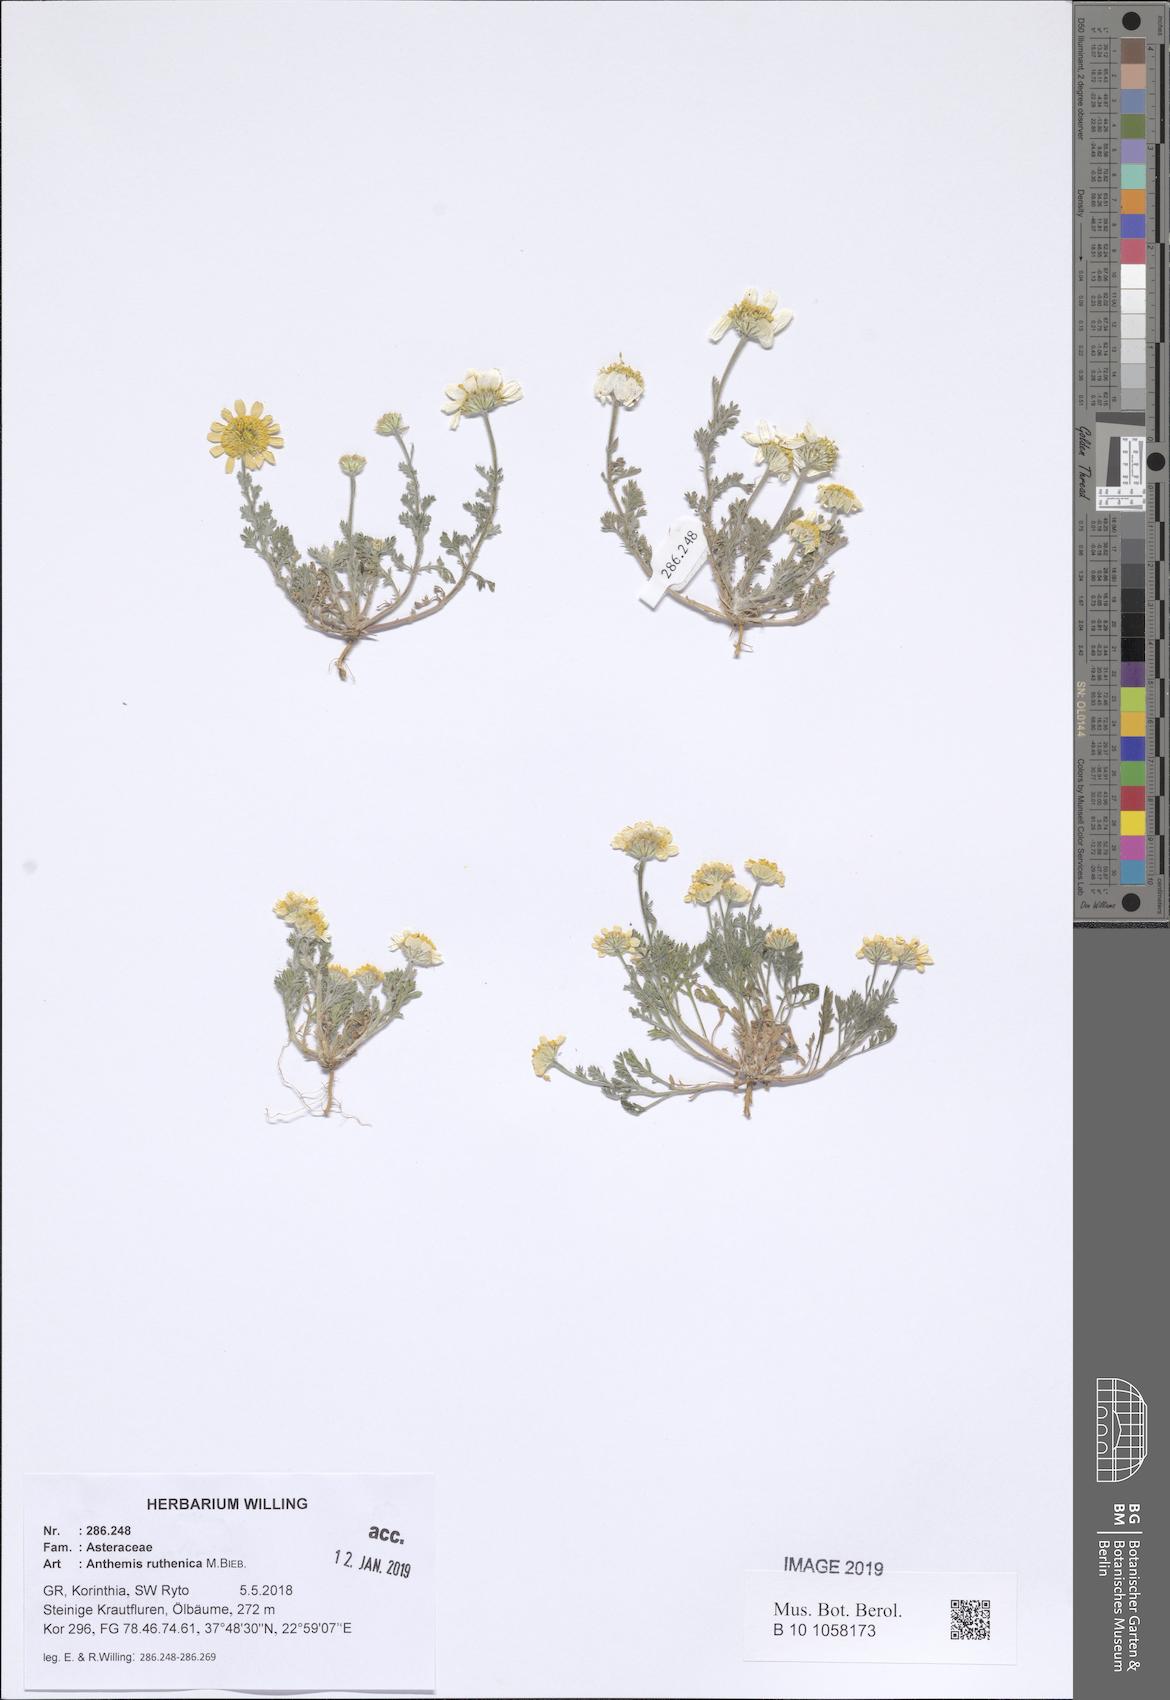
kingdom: Plantae
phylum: Tracheophyta
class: Magnoliopsida
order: Asterales
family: Asteraceae
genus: Anthemis
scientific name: Anthemis ruthenica
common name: Eastern chamomile
